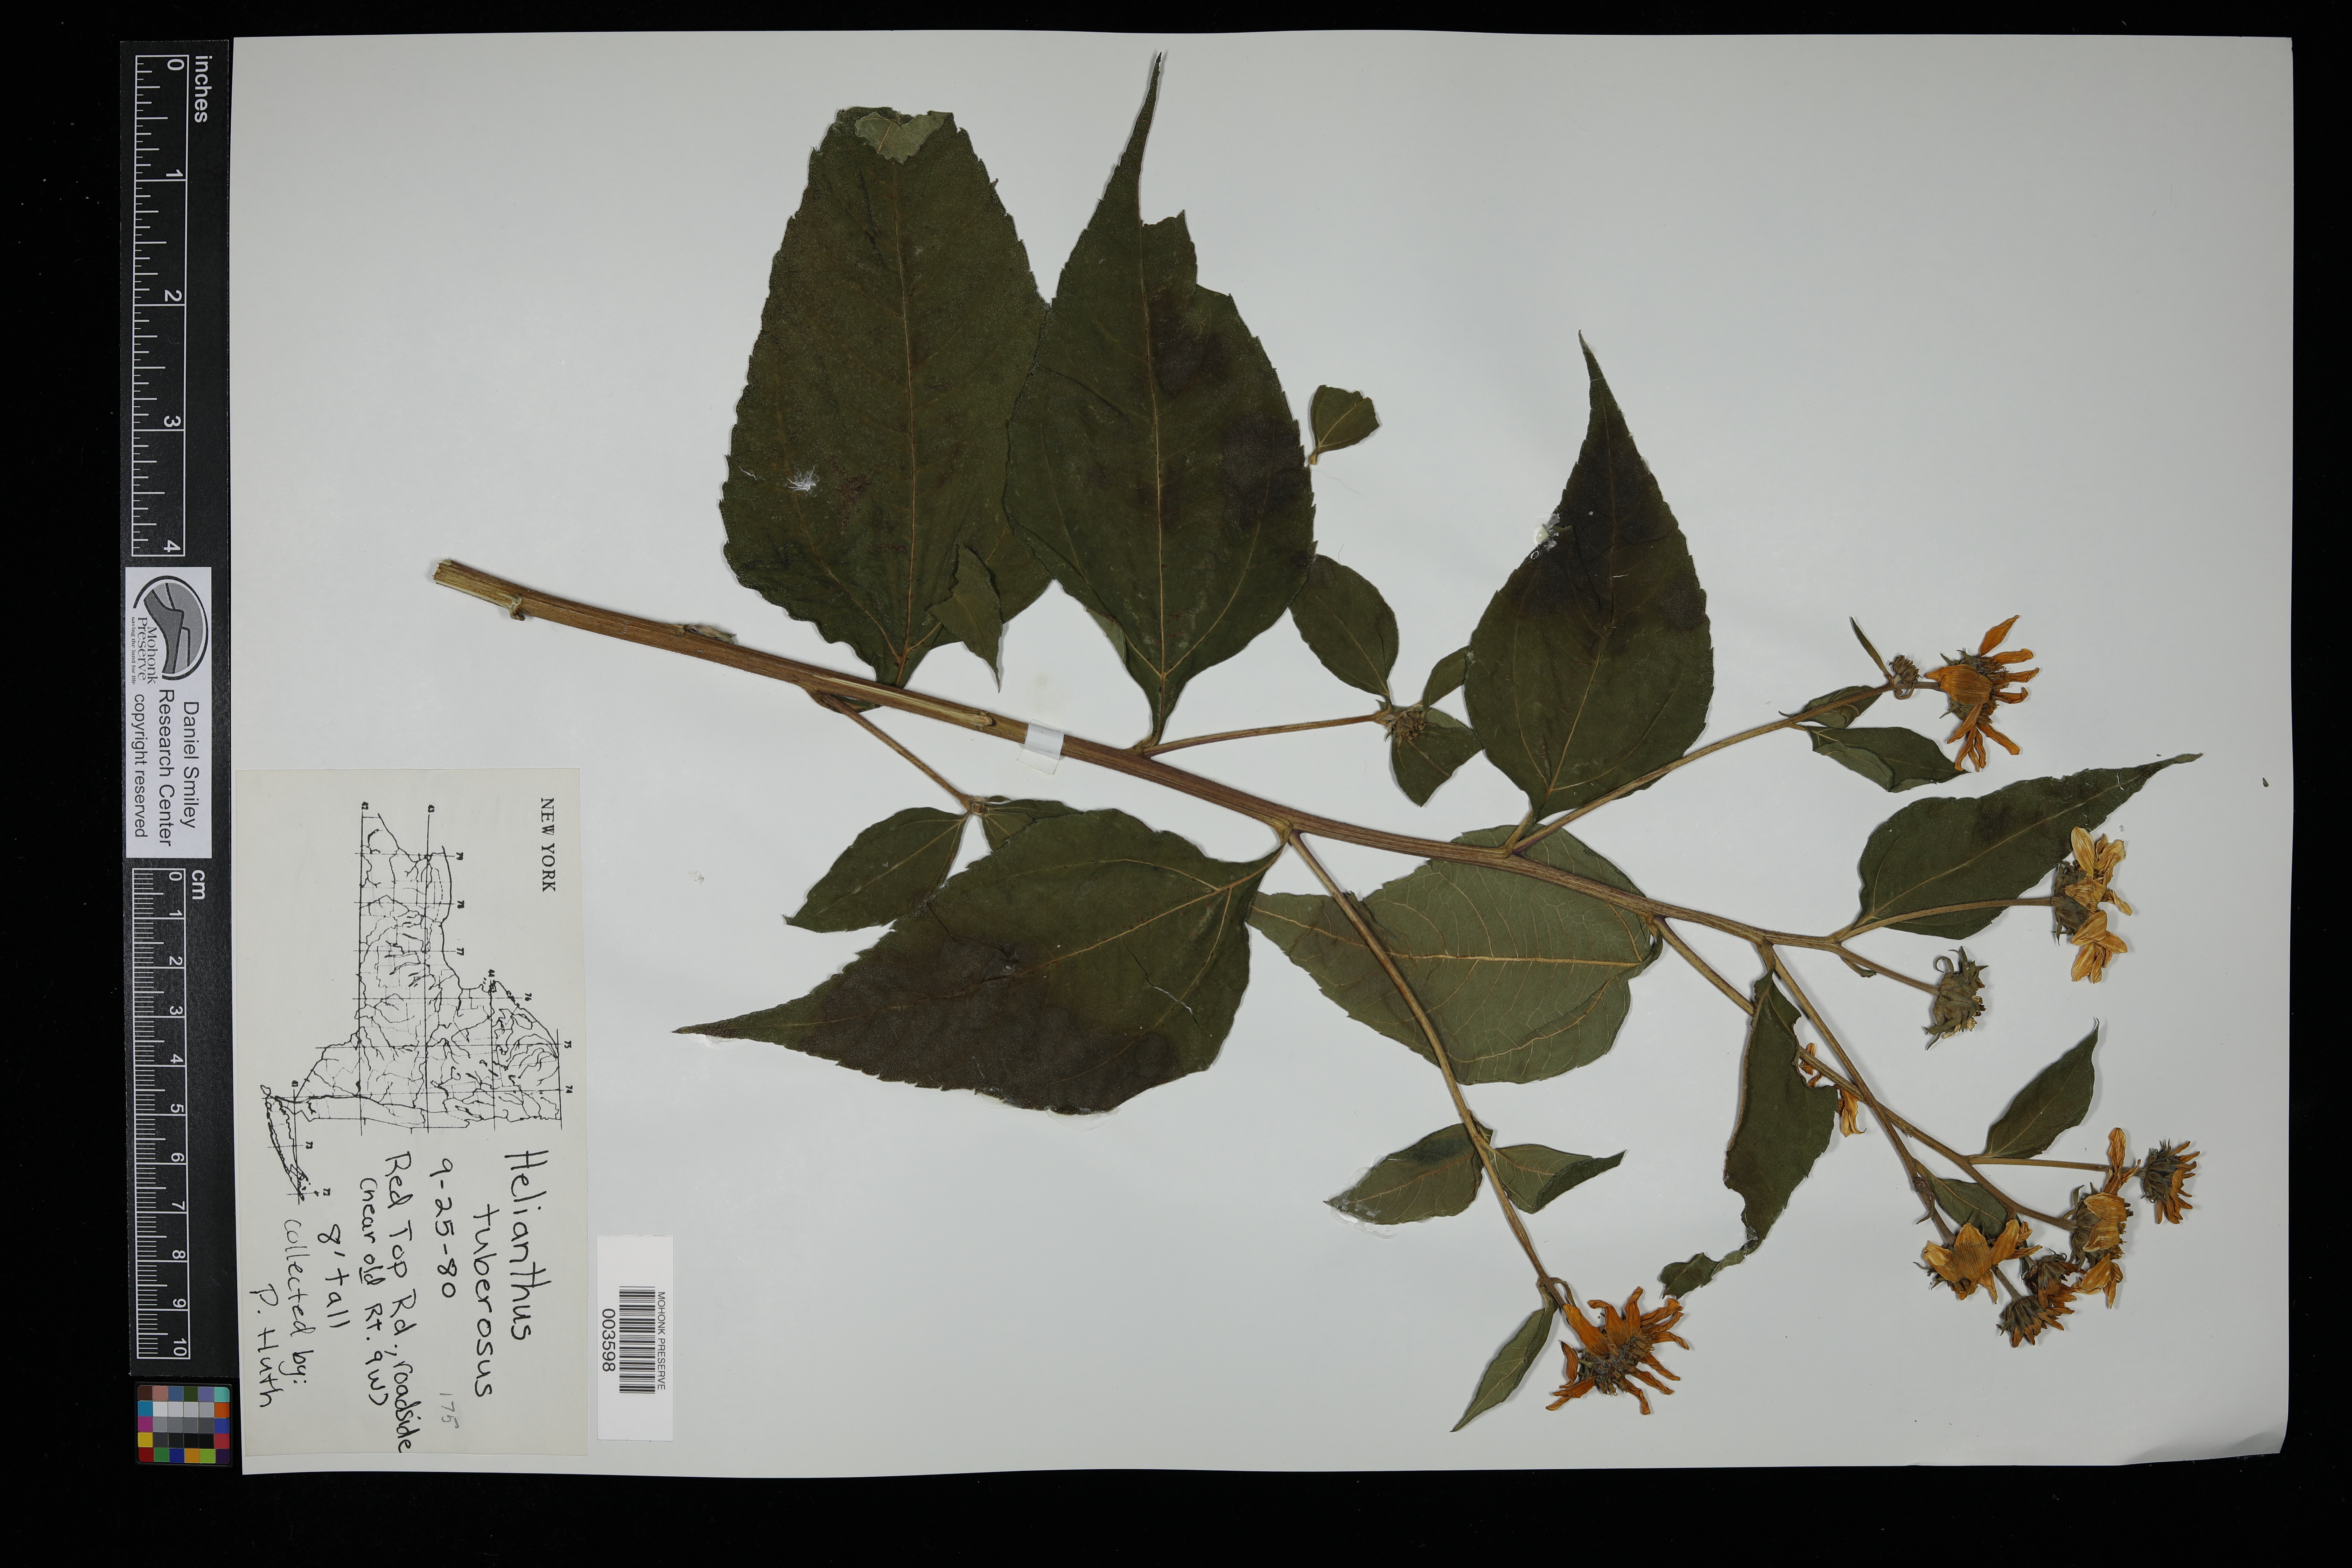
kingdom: Plantae
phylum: Tracheophyta
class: Magnoliopsida
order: Asterales
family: Asteraceae
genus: Helianthus
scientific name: Helianthus tuberosus
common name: Jerusalem artichoke
